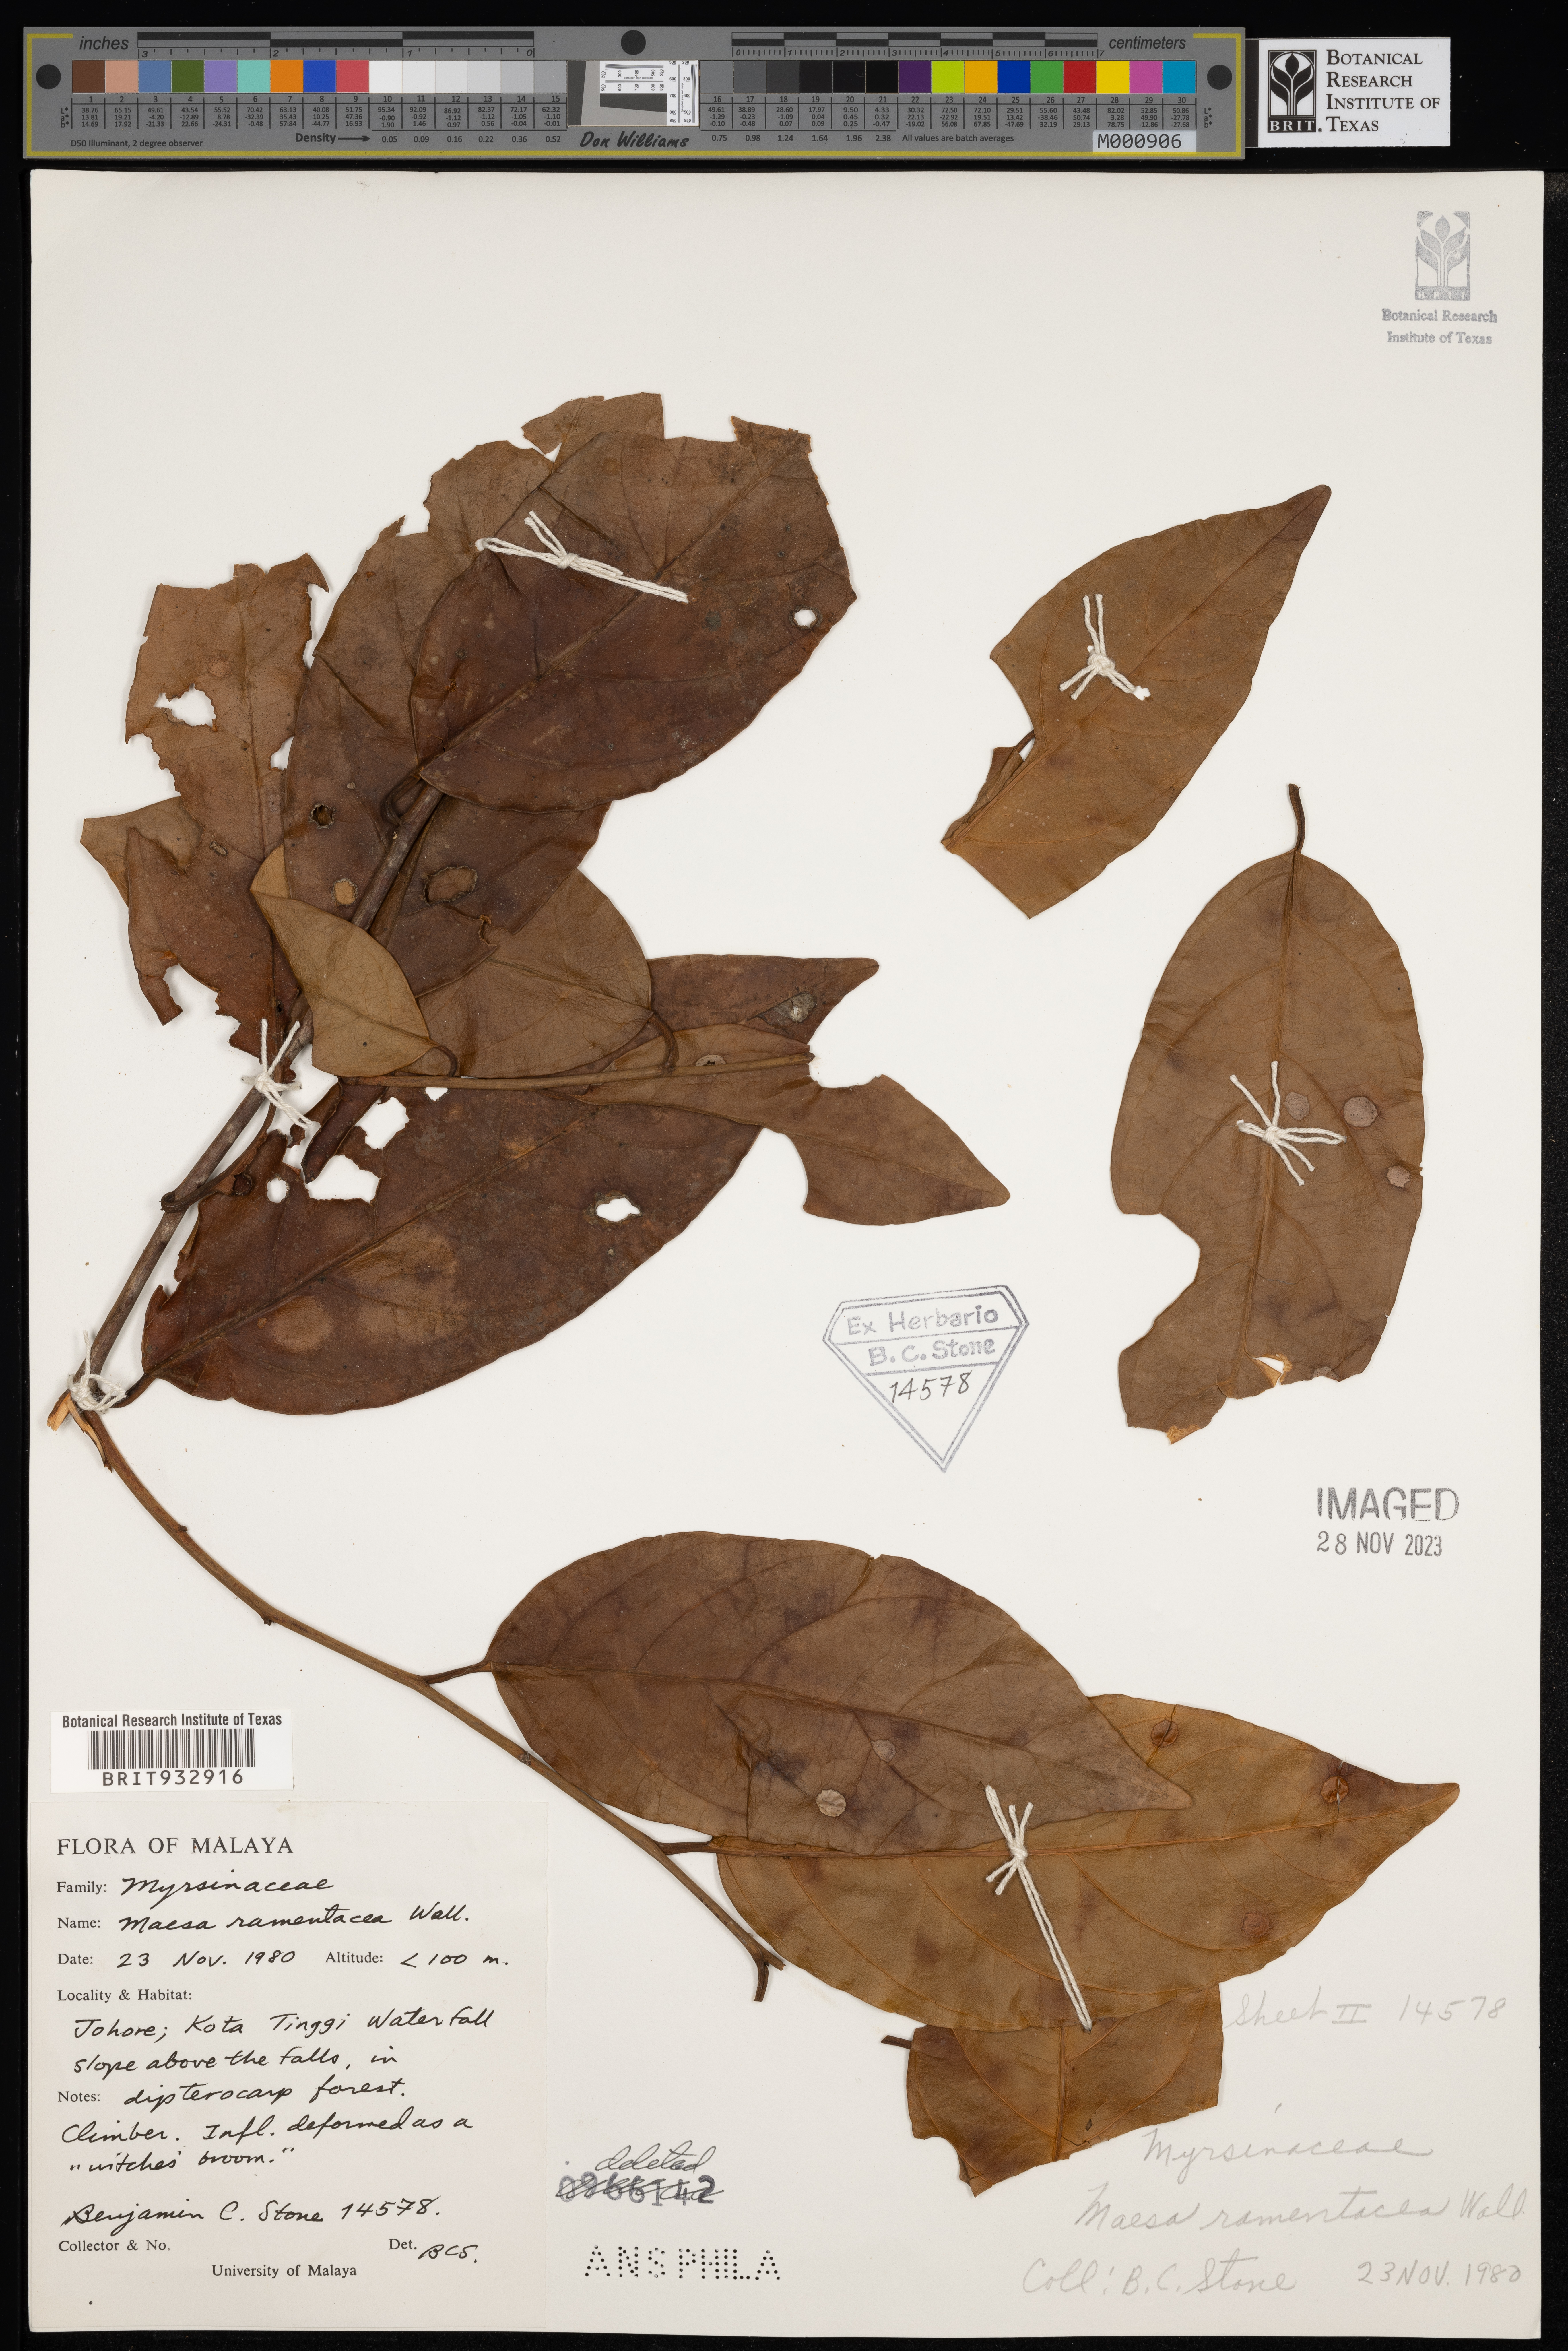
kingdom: Plantae
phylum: Tracheophyta
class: Magnoliopsida
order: Ericales
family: Primulaceae
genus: Maesa
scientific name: Maesa
